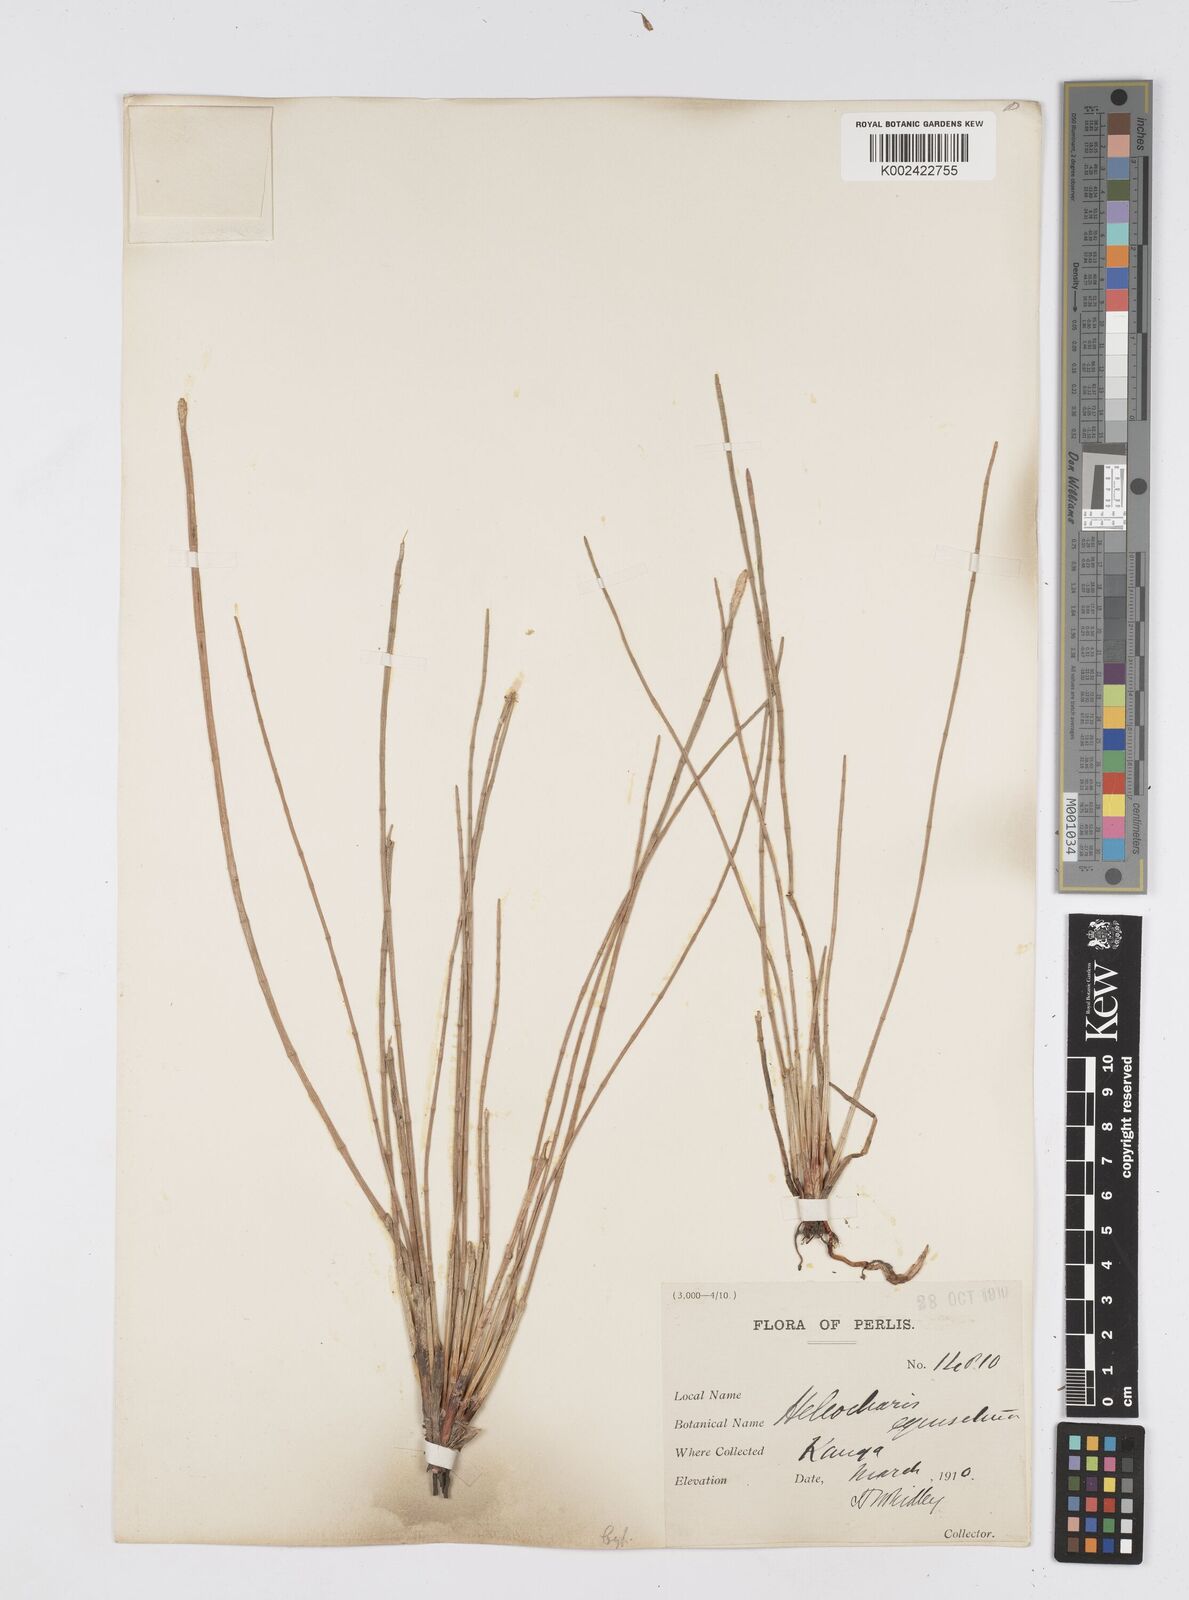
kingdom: Plantae
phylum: Tracheophyta
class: Liliopsida
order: Poales
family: Cyperaceae
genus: Eleocharis
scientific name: Eleocharis dulcis
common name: Chinese water chestnut
